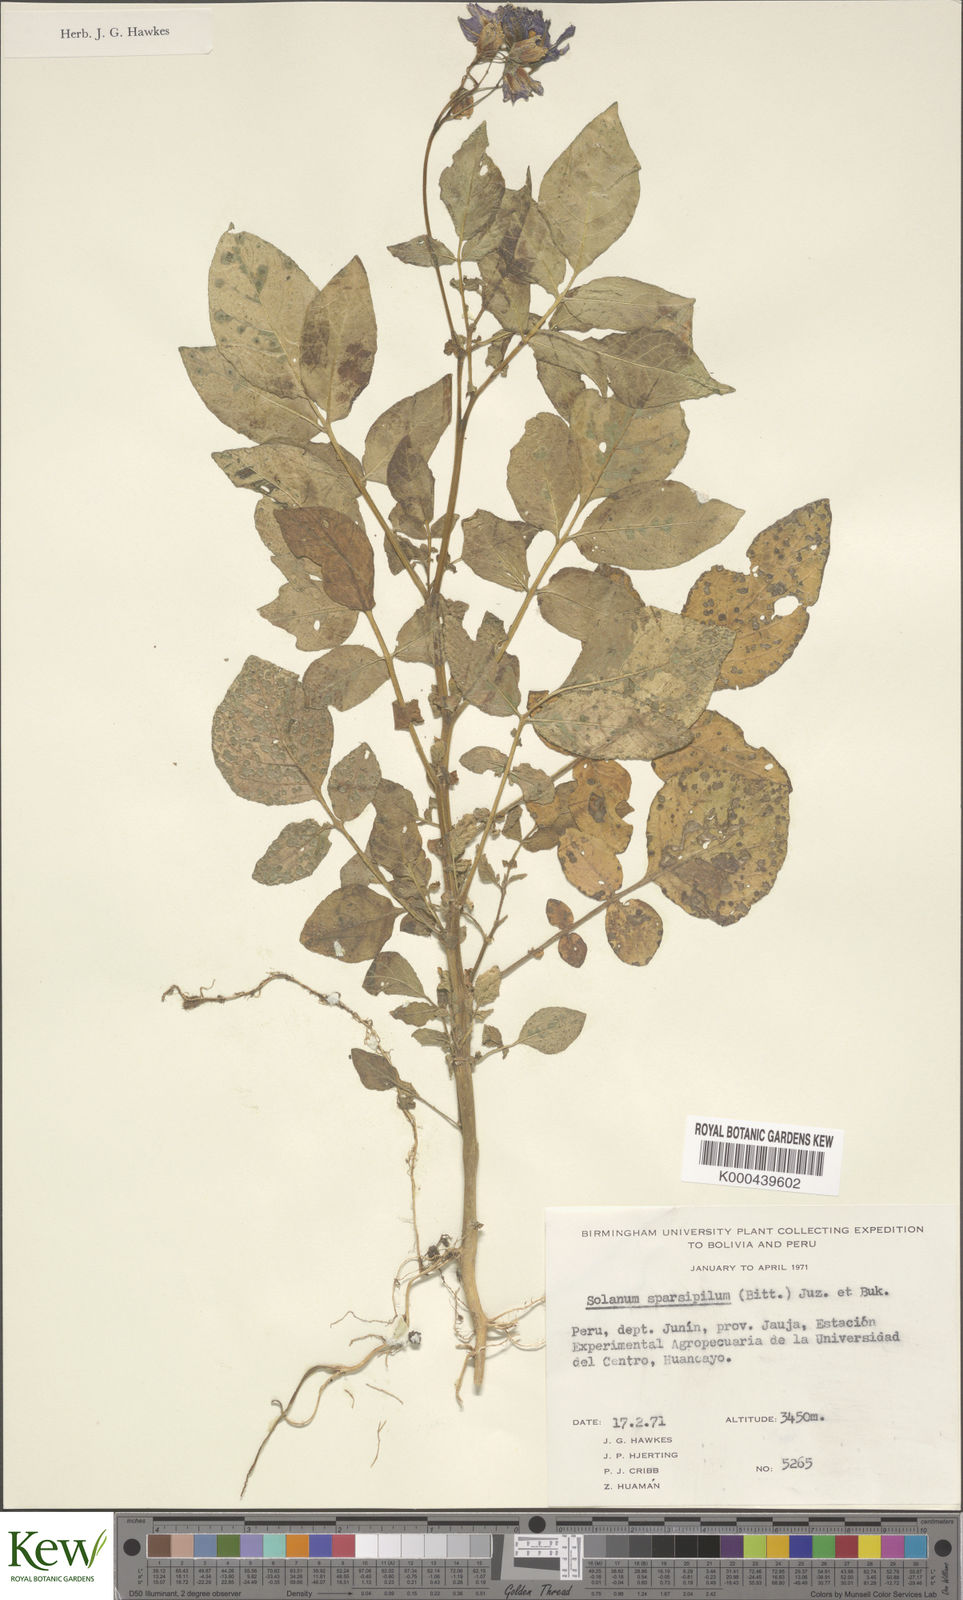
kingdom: Plantae
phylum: Tracheophyta
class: Magnoliopsida
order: Solanales
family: Solanaceae
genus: Solanum
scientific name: Solanum brevicaule
